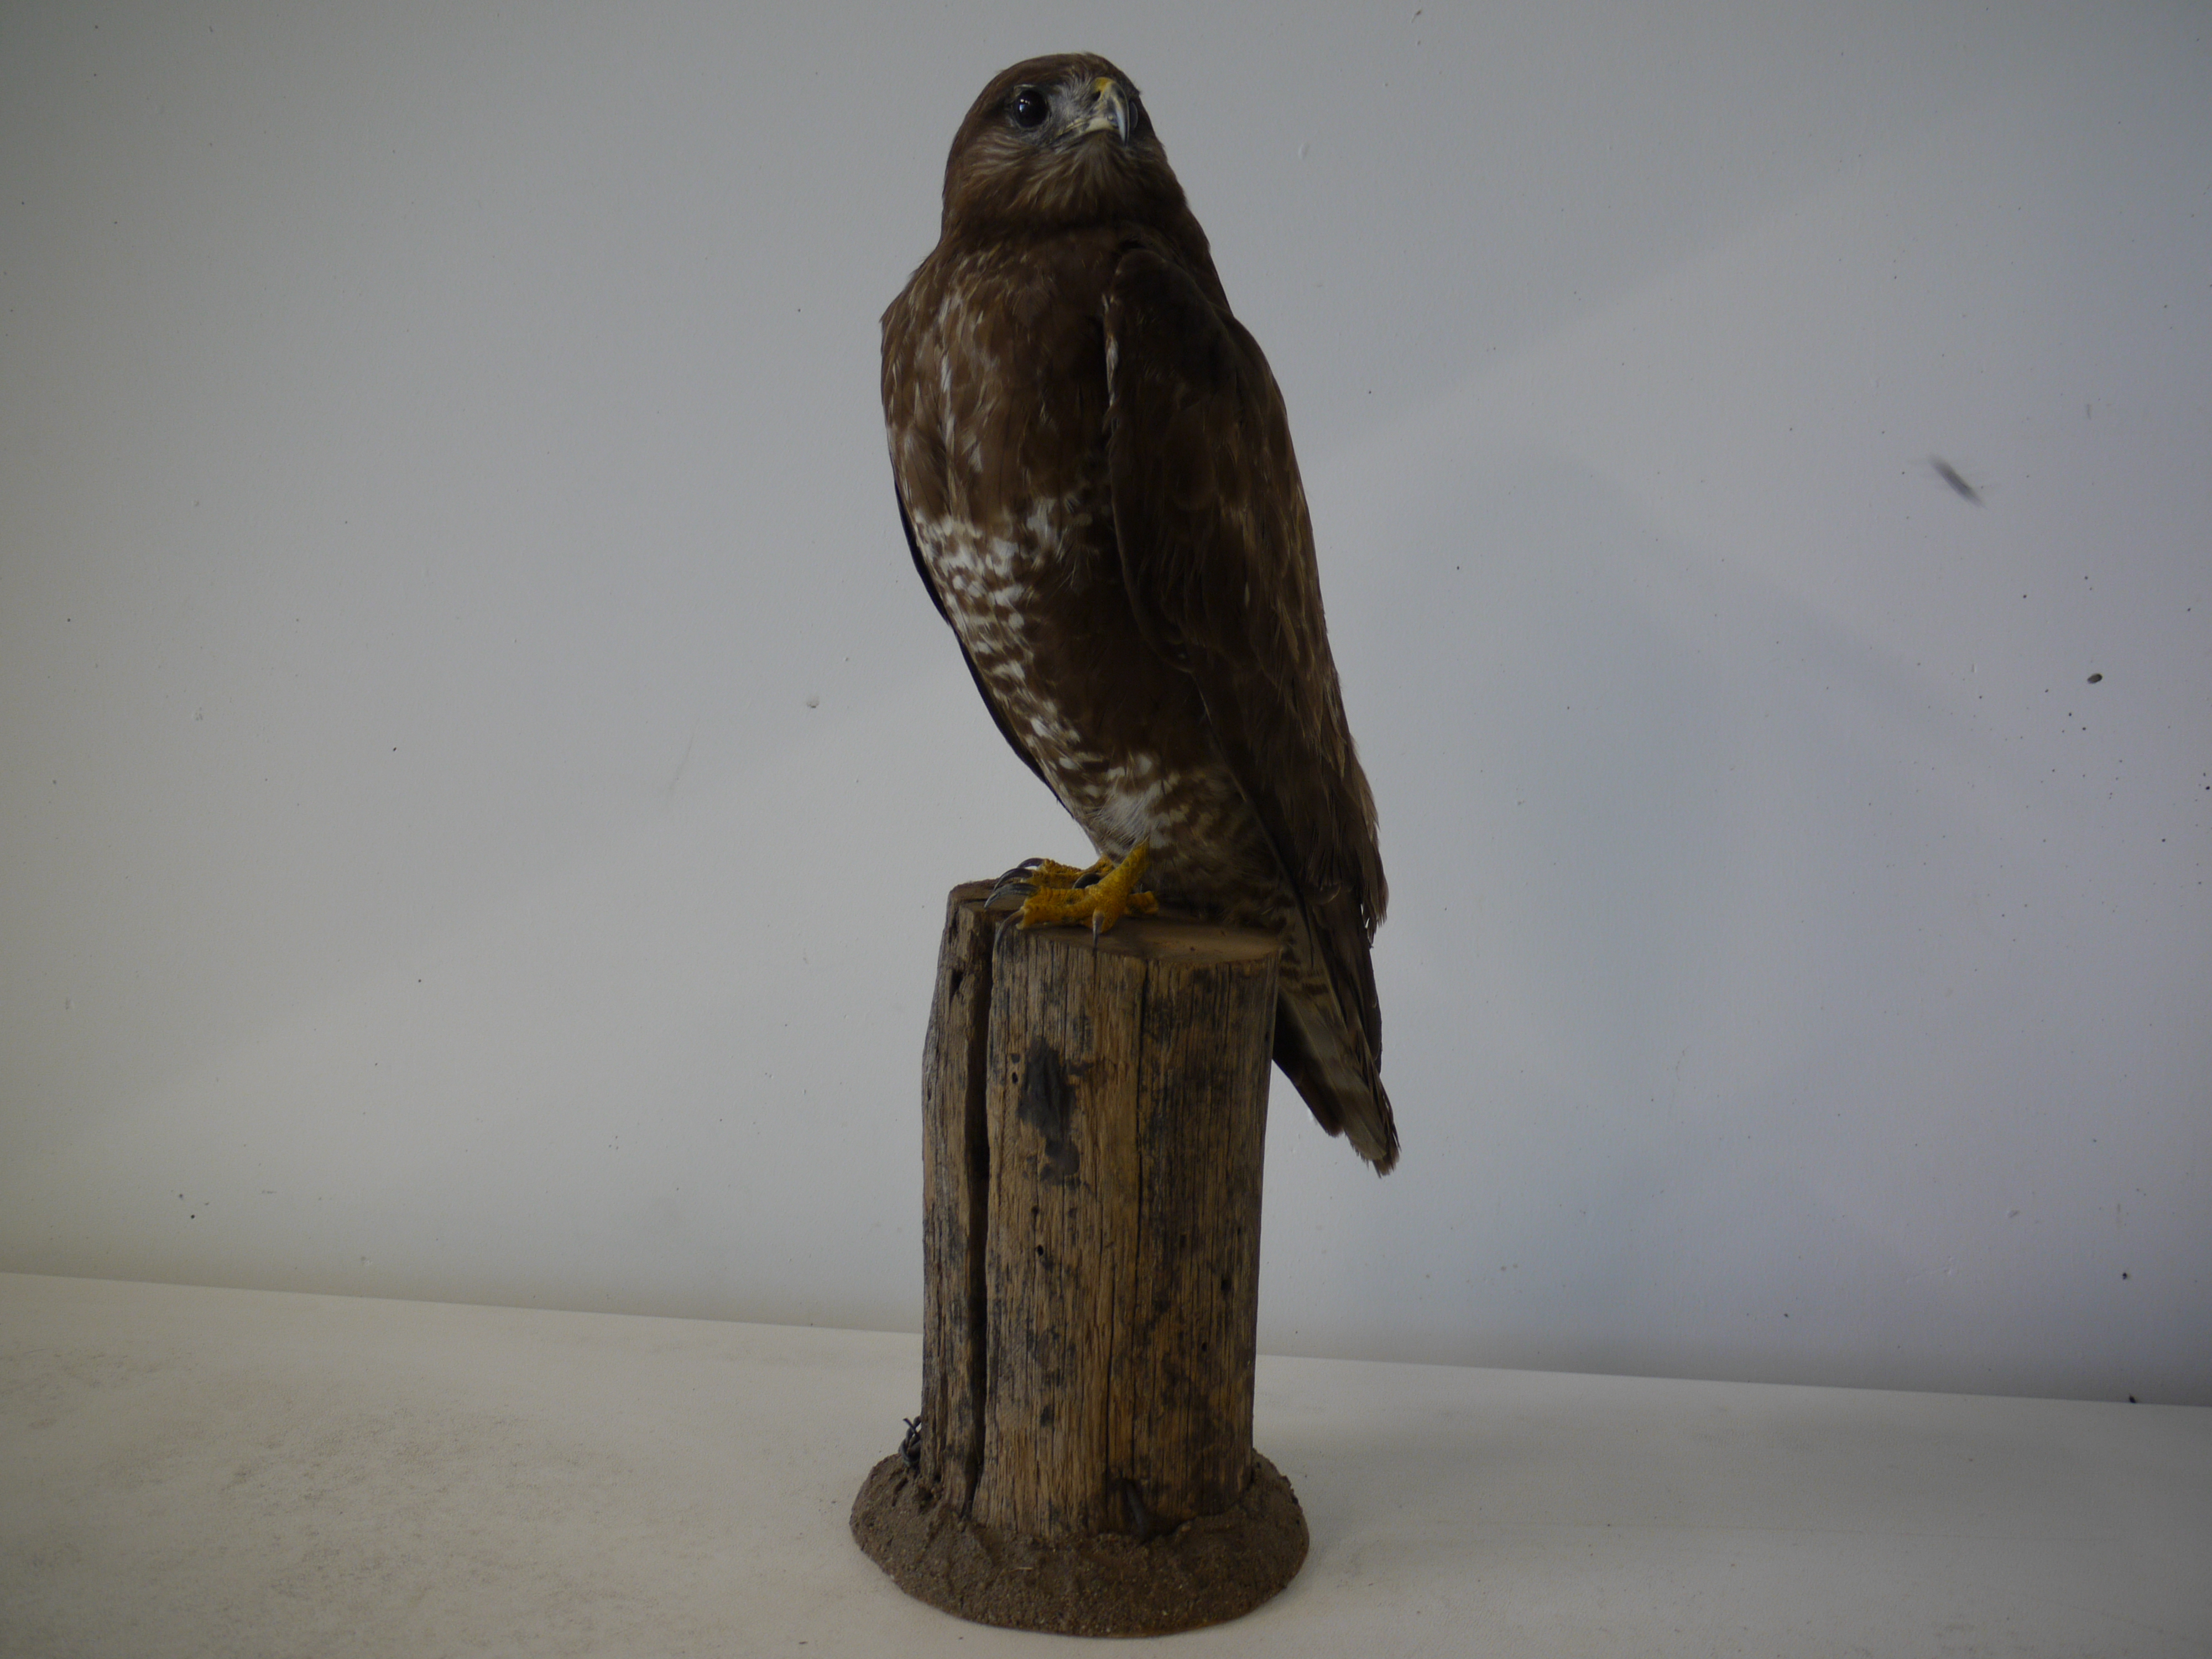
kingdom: Animalia
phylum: Chordata
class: Aves
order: Accipitriformes
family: Accipitridae
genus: Buteo
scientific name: Buteo buteo
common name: Common buzzard
